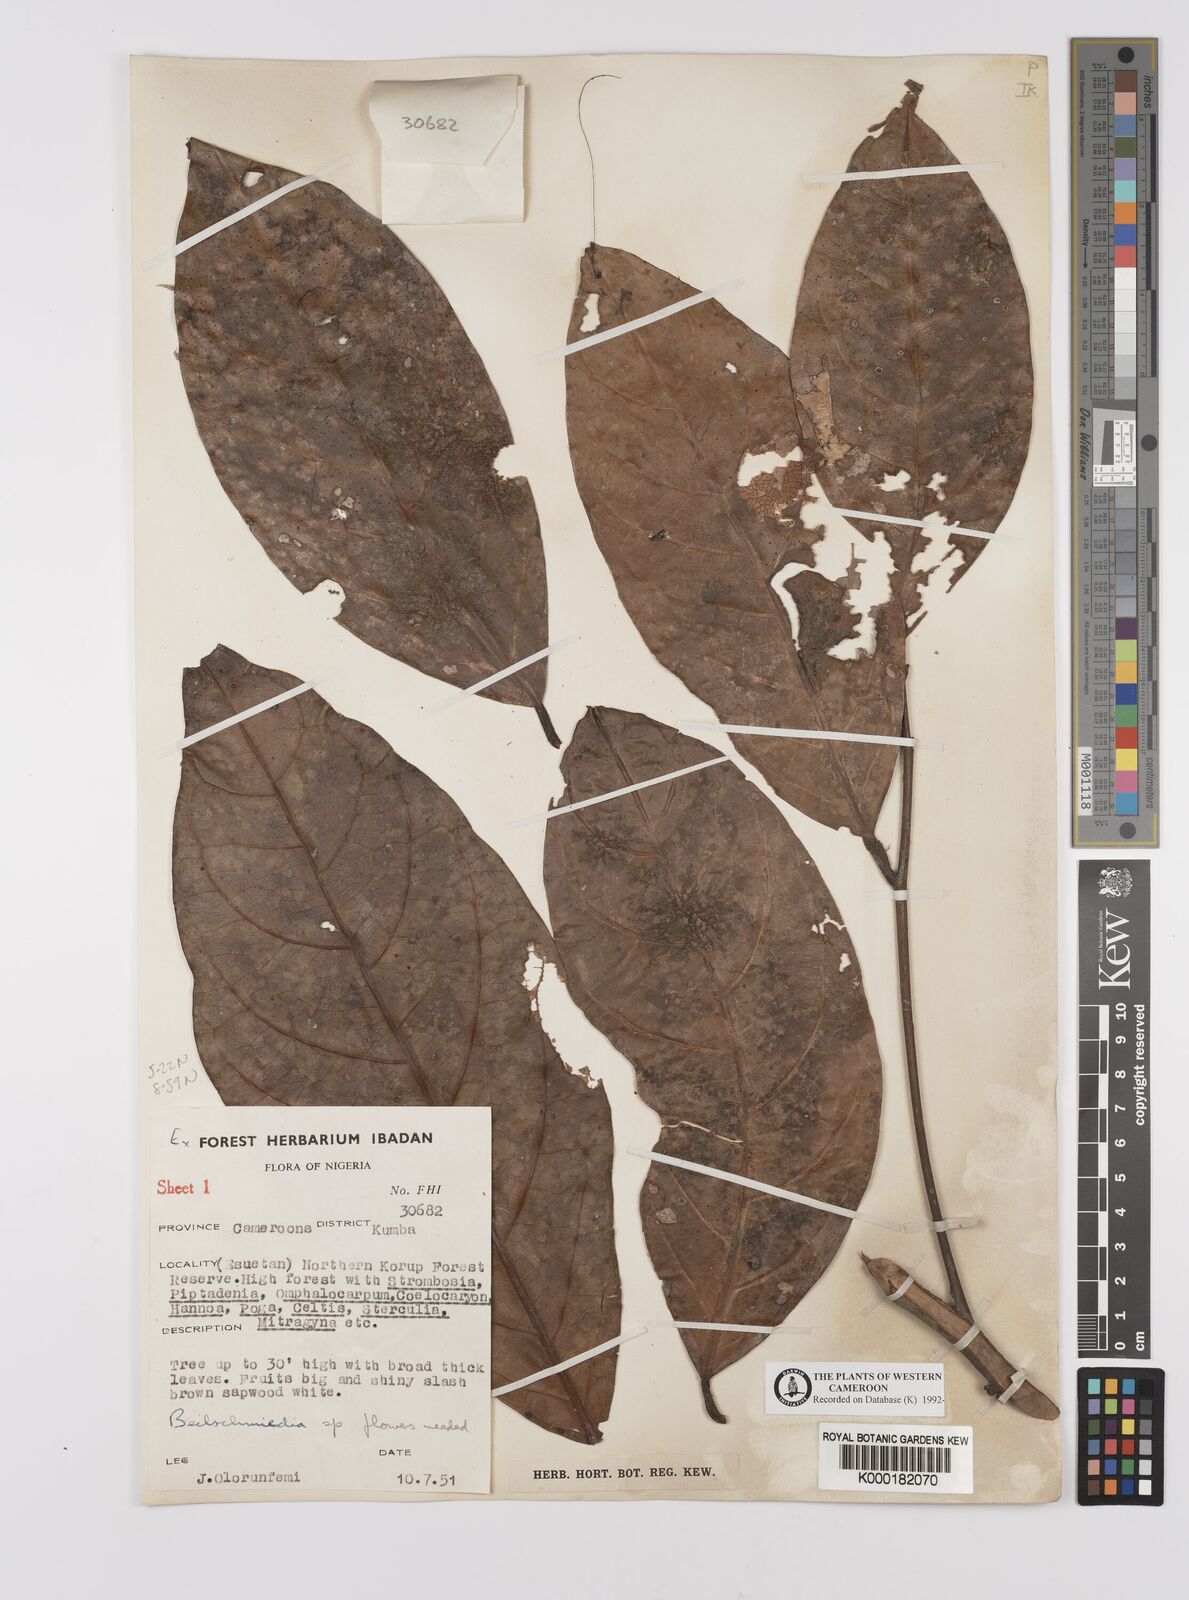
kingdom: Plantae
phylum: Tracheophyta
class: Magnoliopsida
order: Laurales
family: Lauraceae
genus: Beilschmiedia
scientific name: Beilschmiedia
